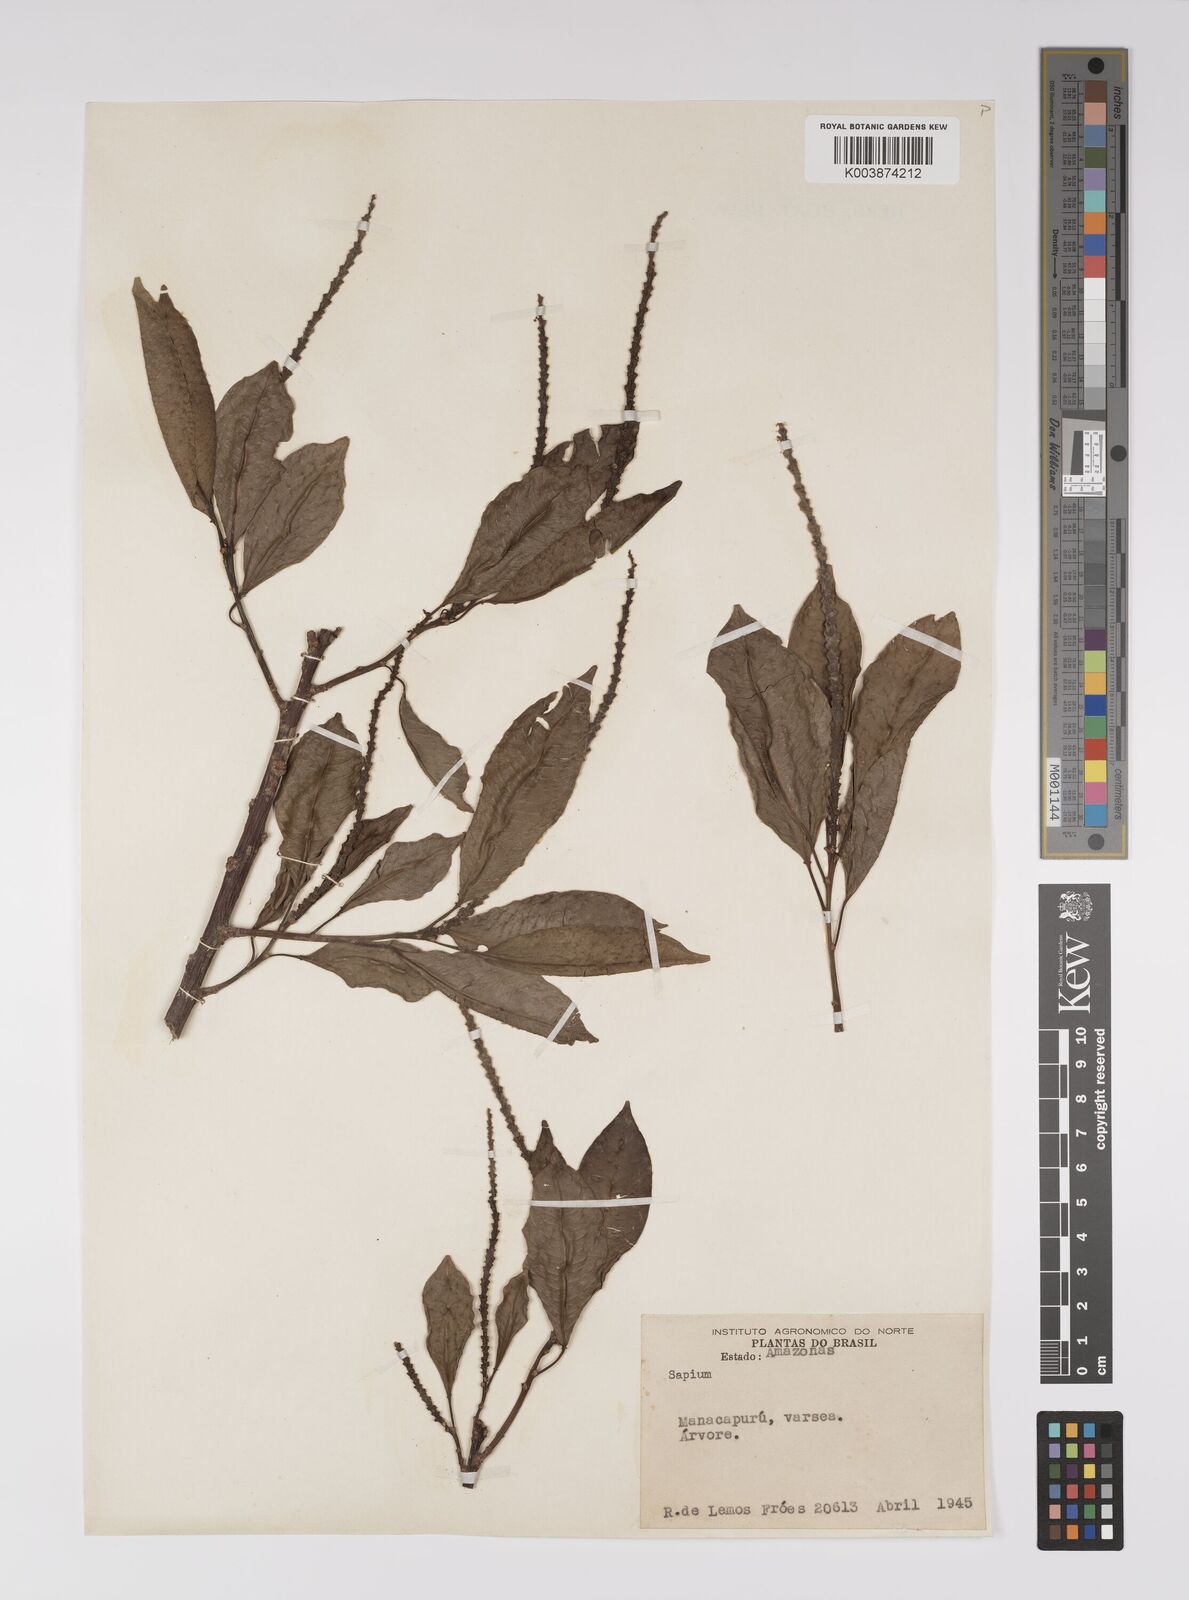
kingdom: Plantae
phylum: Tracheophyta
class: Magnoliopsida
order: Malpighiales
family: Euphorbiaceae
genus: Sapium
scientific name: Sapium
